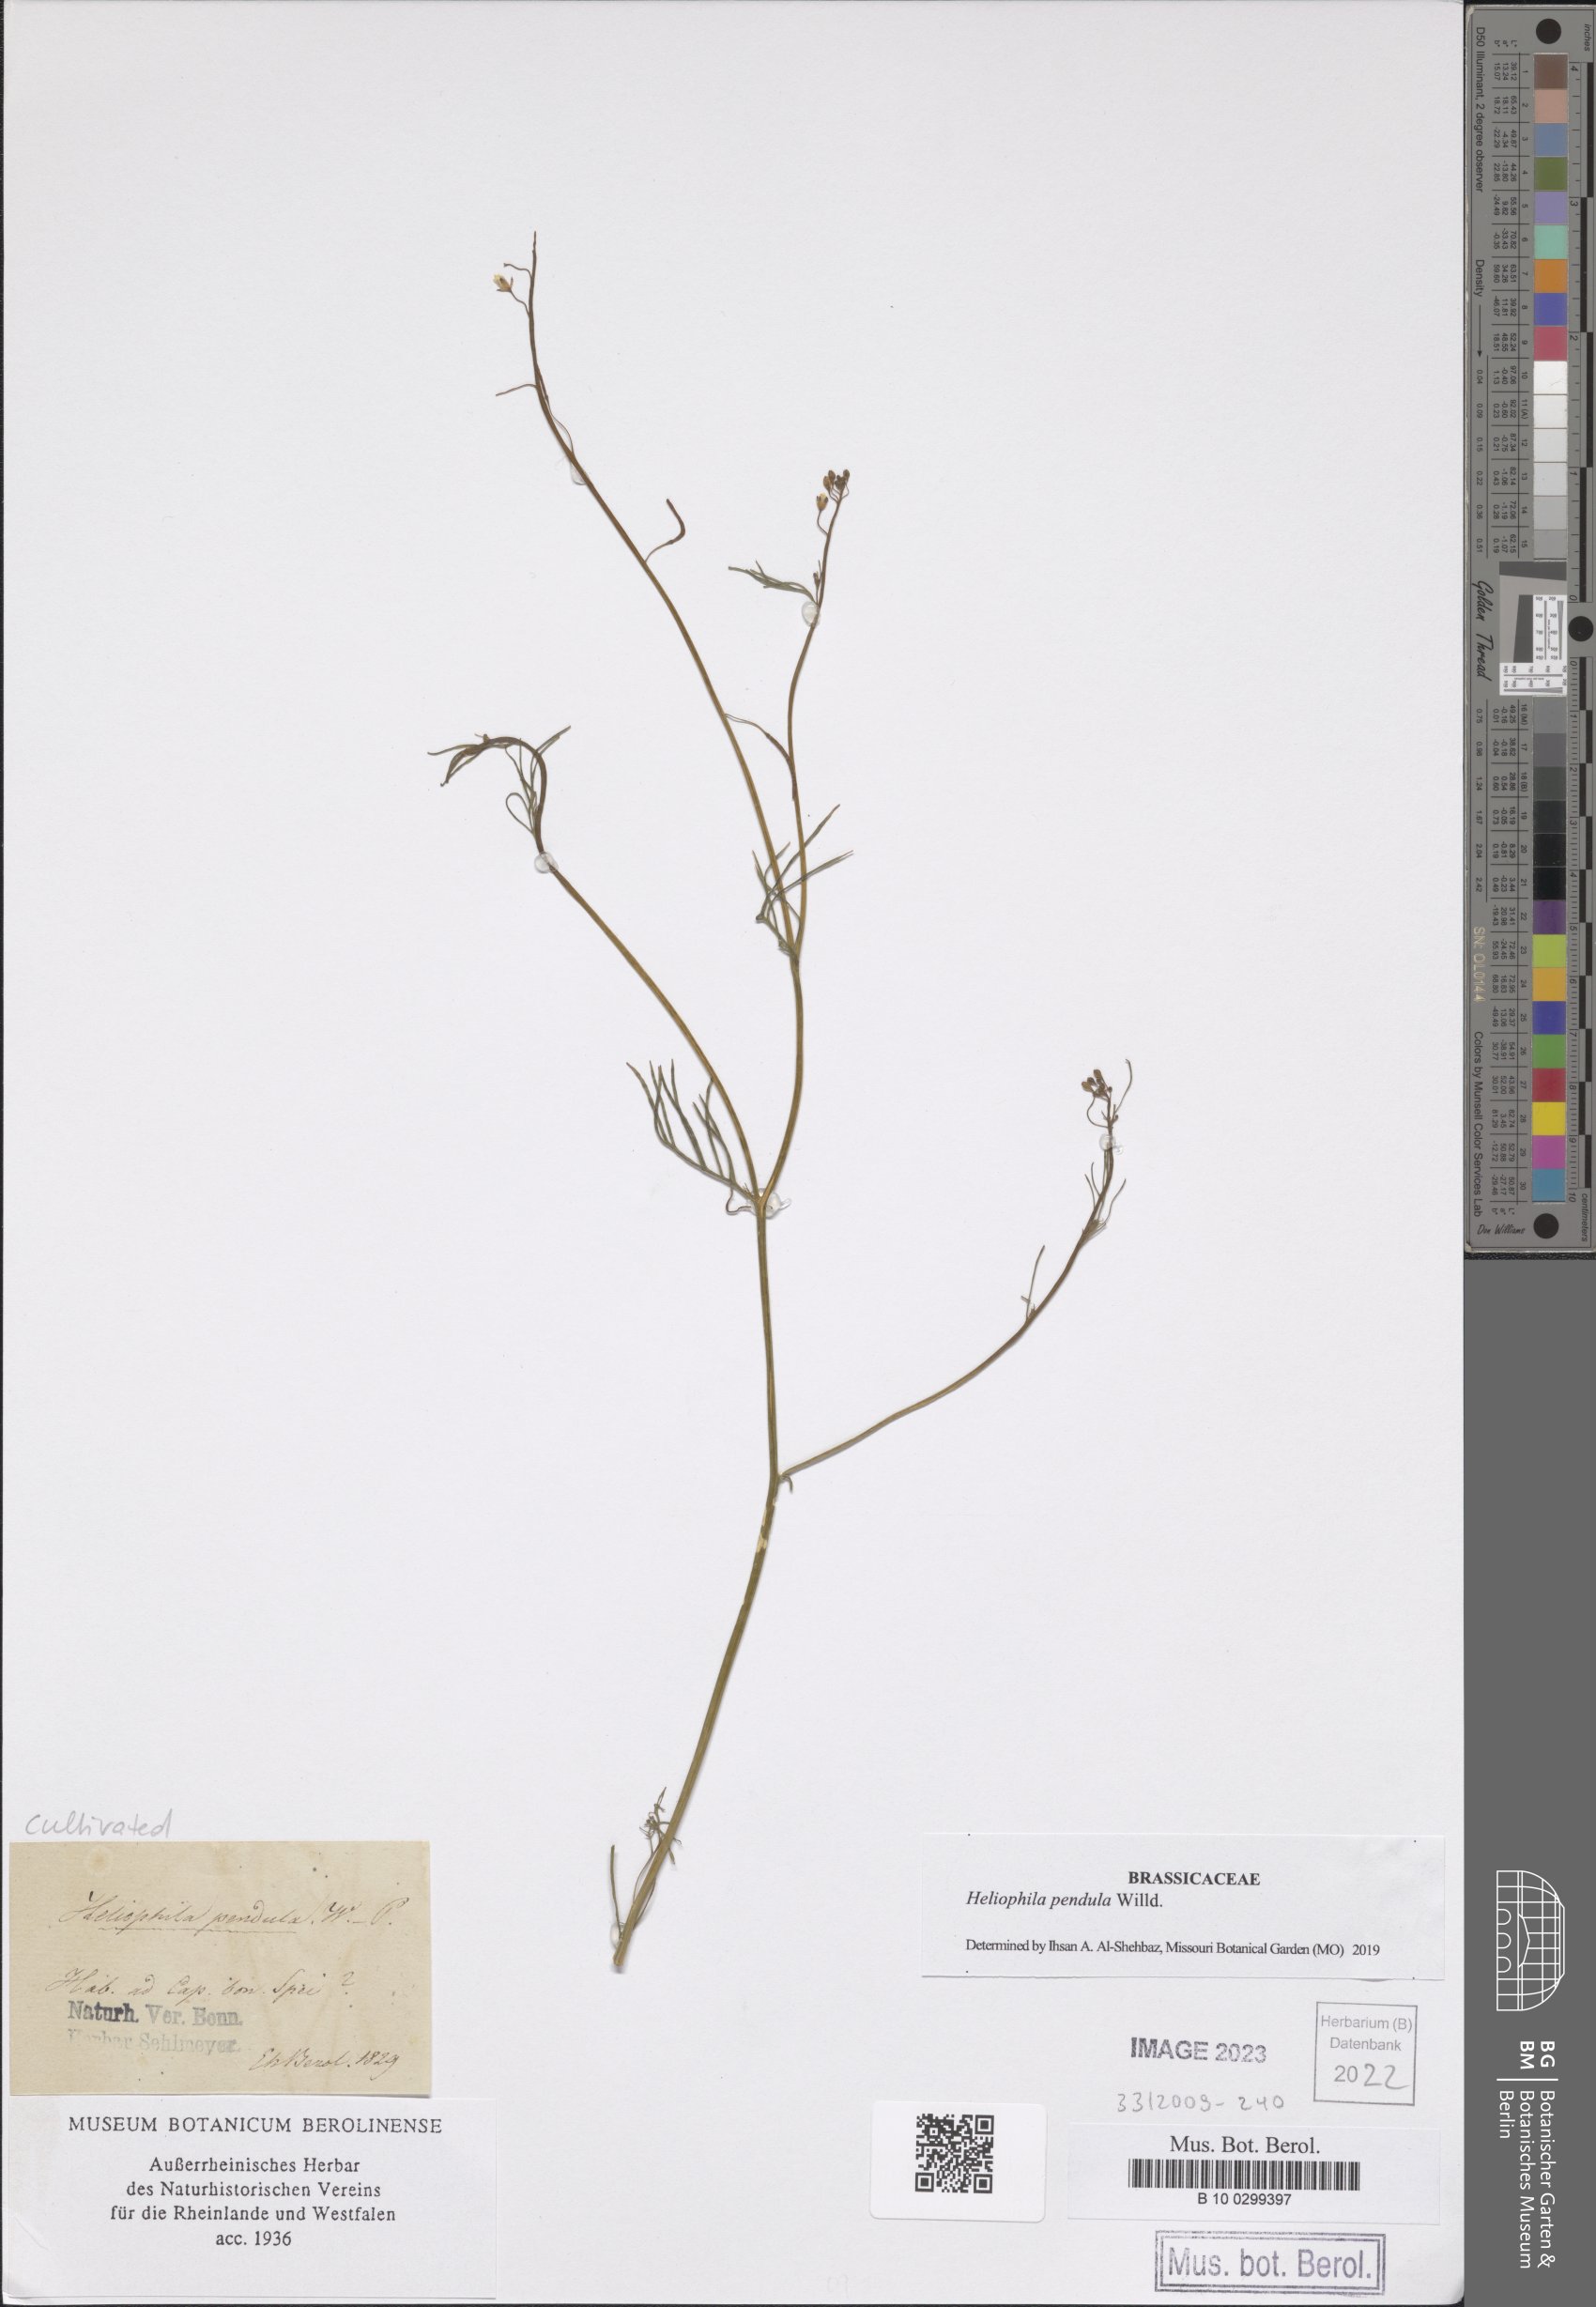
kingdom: Plantae
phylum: Tracheophyta
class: Magnoliopsida
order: Brassicales
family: Brassicaceae
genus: Heliophila
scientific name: Heliophila pendula
